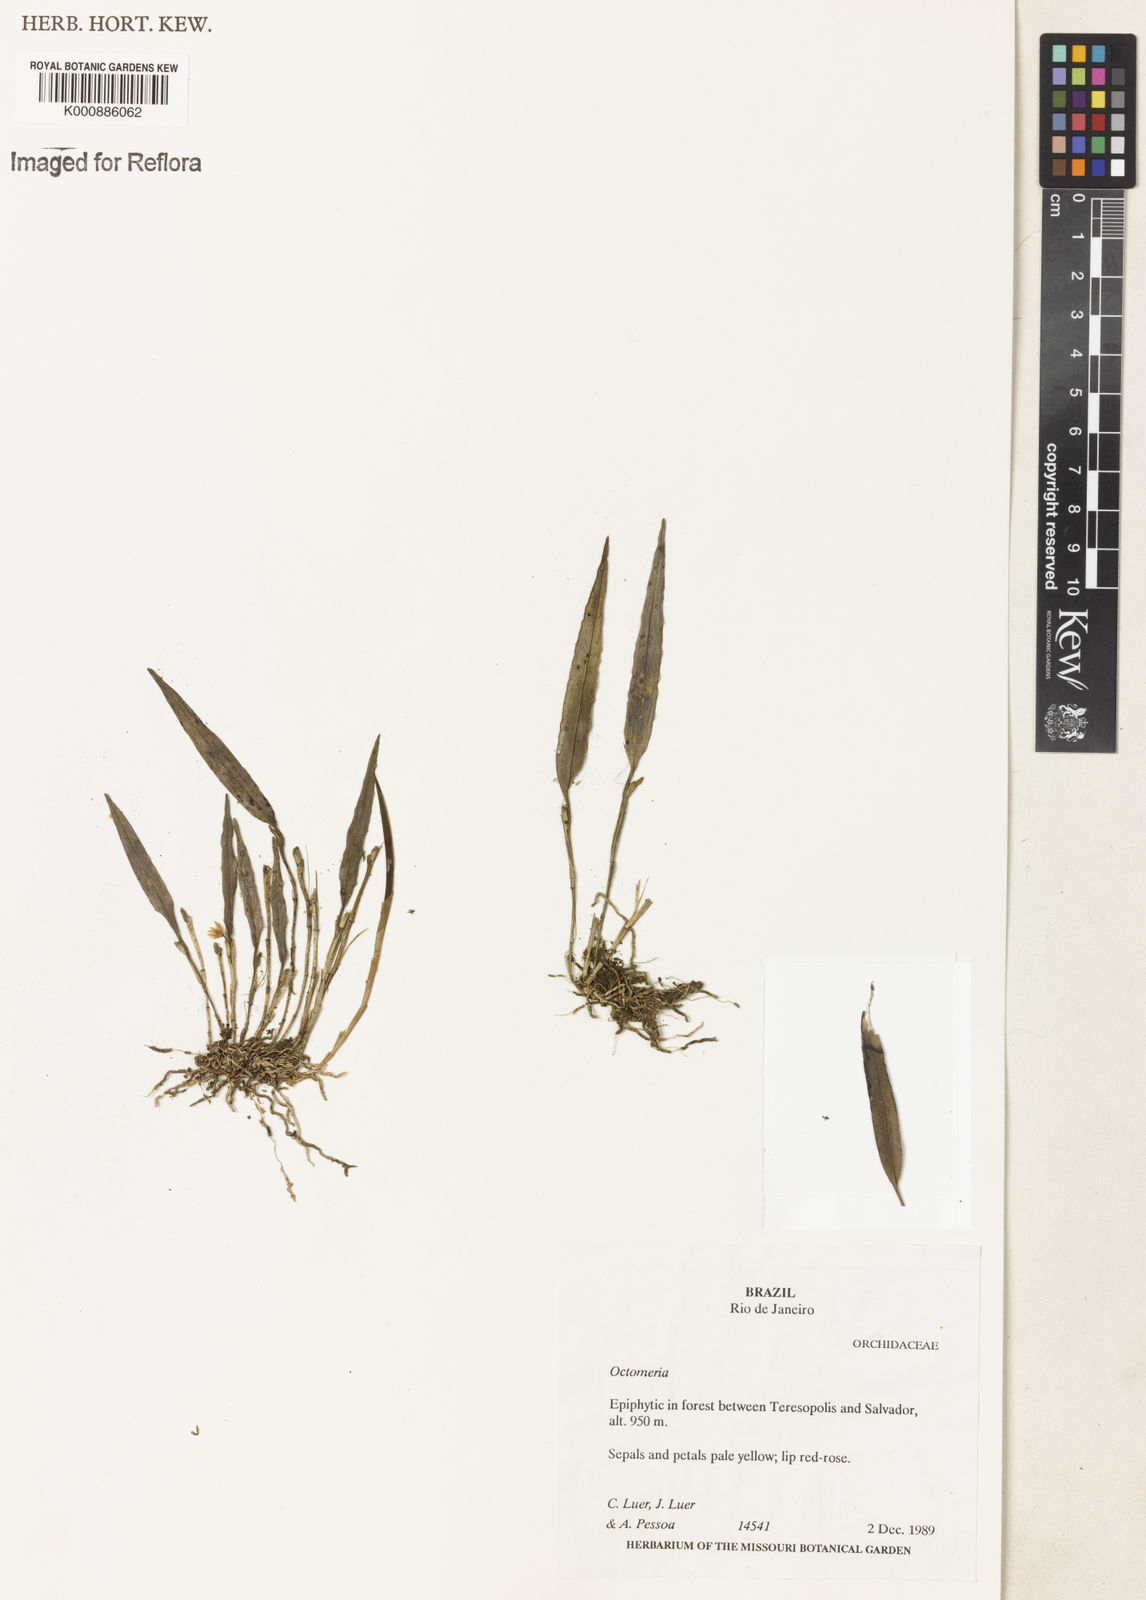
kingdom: Plantae
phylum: Tracheophyta
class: Liliopsida
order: Asparagales
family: Orchidaceae
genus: Octomeria
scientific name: Octomeria
